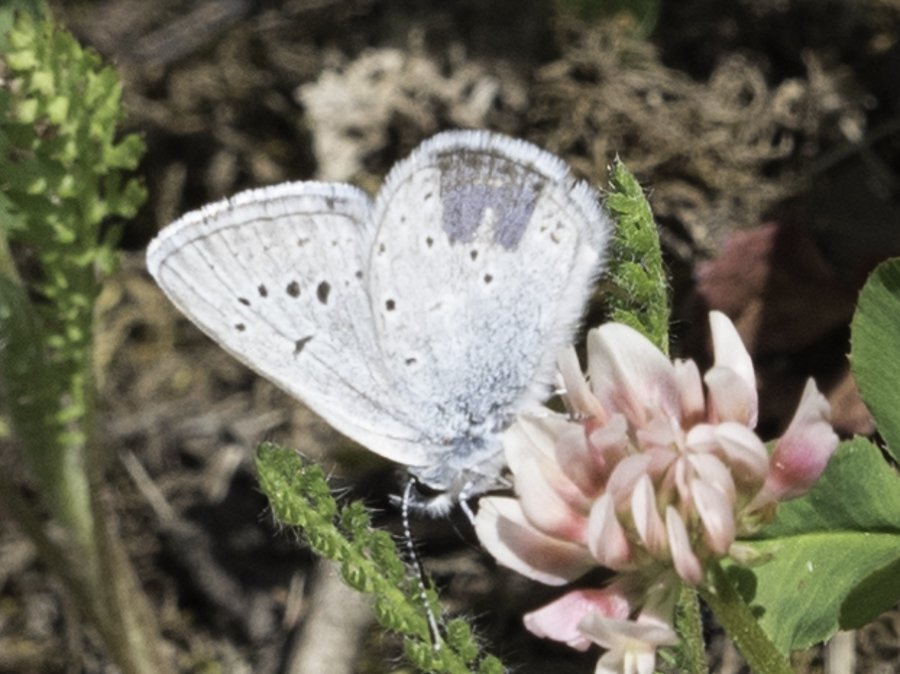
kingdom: Animalia
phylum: Arthropoda
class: Insecta
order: Lepidoptera
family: Lycaenidae
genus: Plebejus
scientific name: Plebejus saepiolus
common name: Greenish Blue
